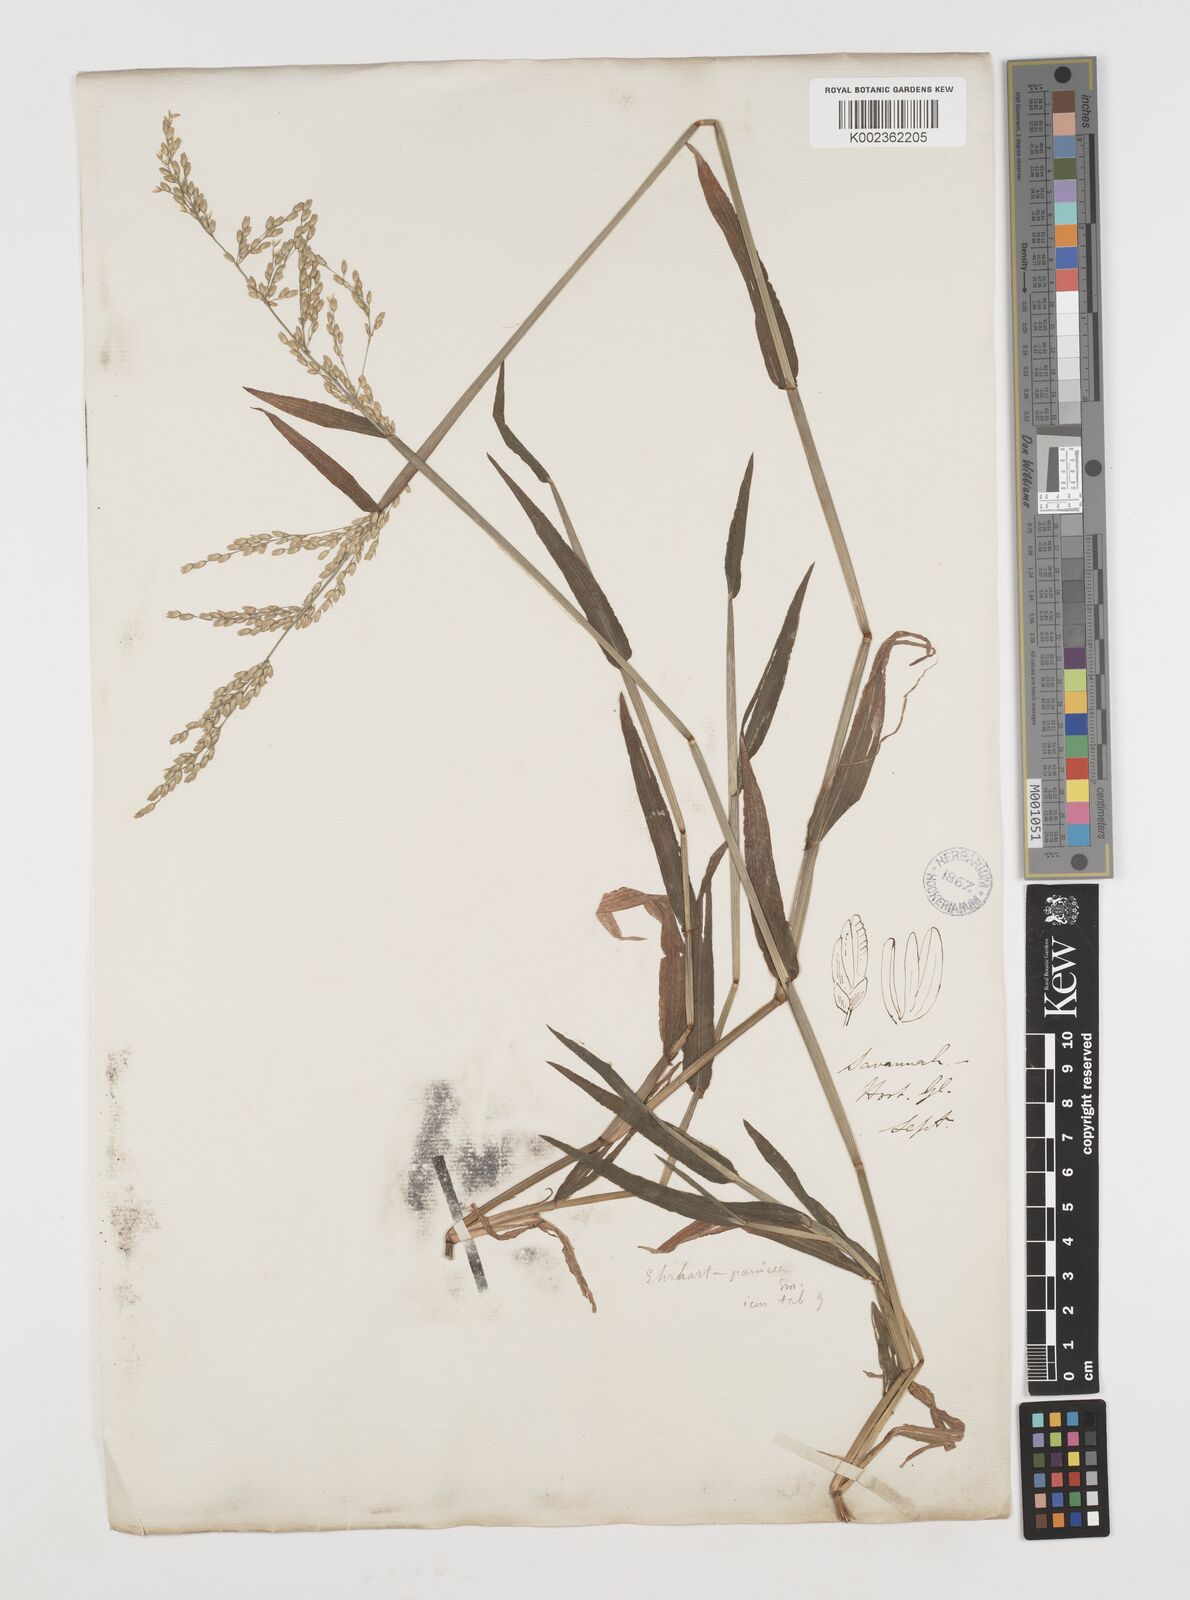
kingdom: Plantae
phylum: Tracheophyta
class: Liliopsida
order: Poales
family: Poaceae
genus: Ehrharta
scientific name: Ehrharta erecta
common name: Panic veldtgrass
